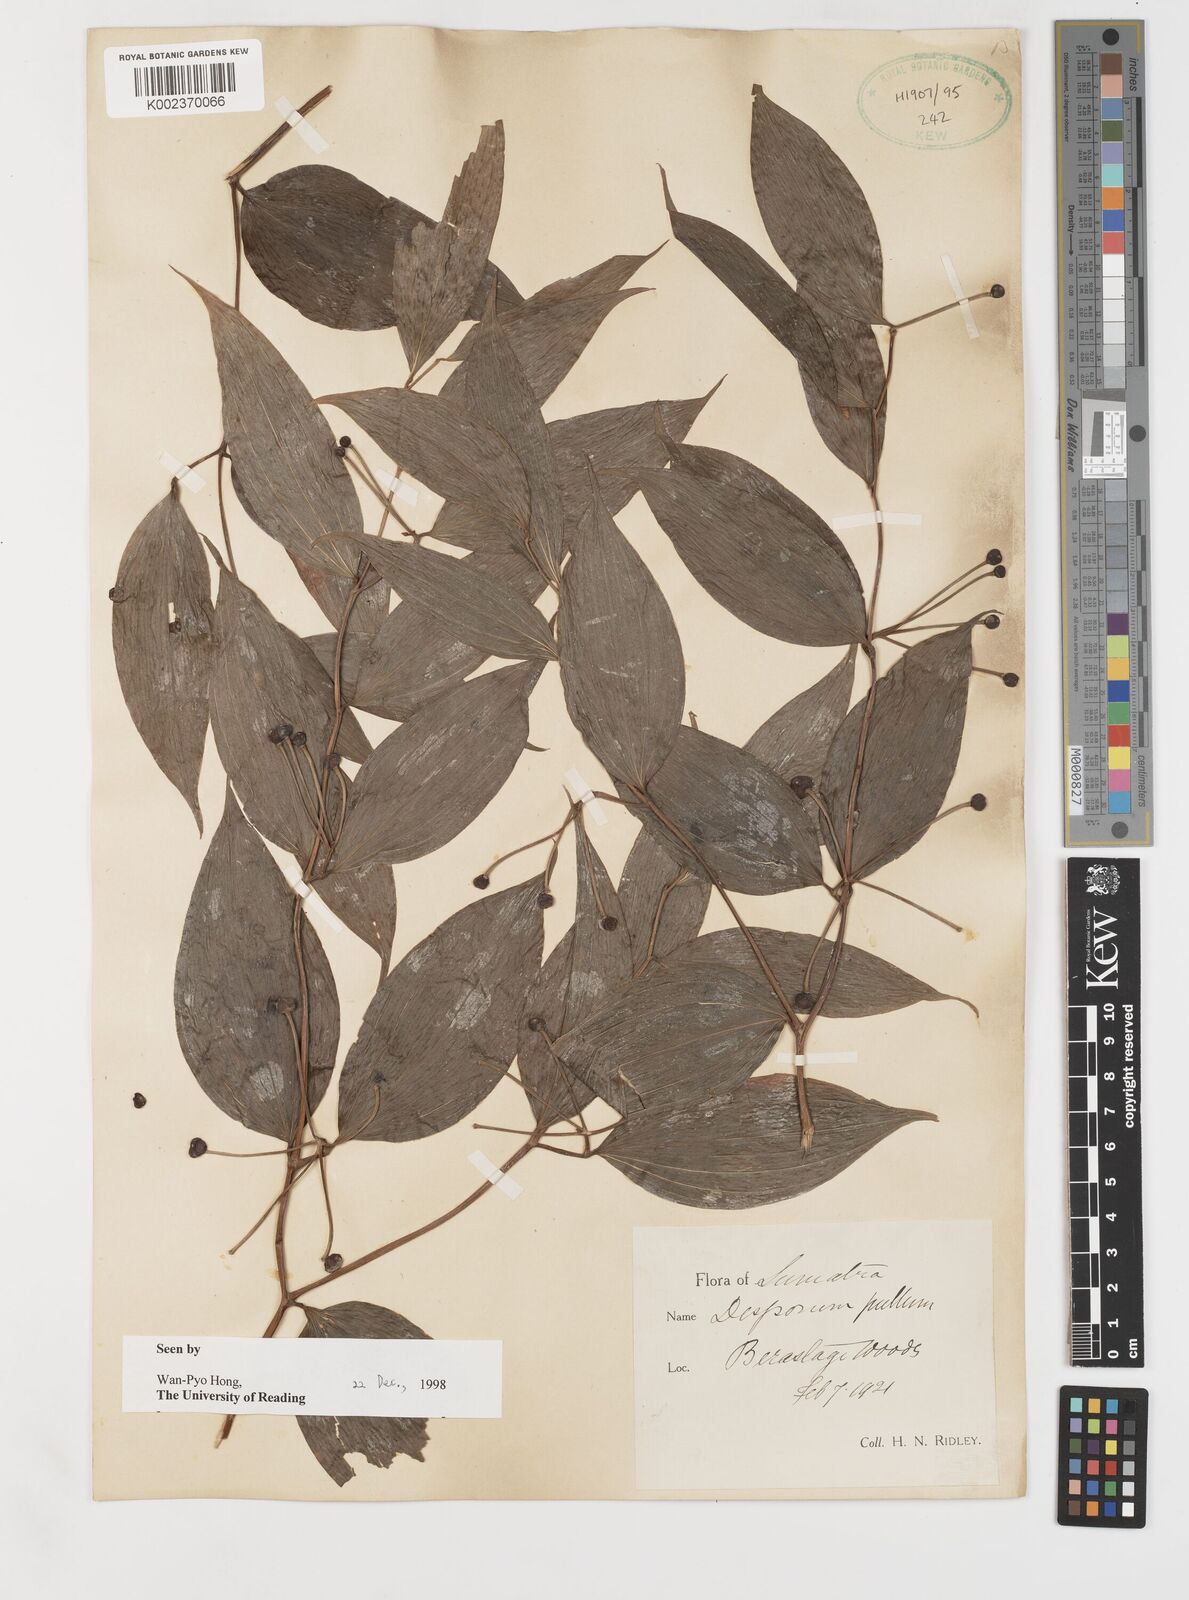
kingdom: Plantae
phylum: Tracheophyta
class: Liliopsida
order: Liliales
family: Colchicaceae
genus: Disporum
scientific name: Disporum cantoniense
